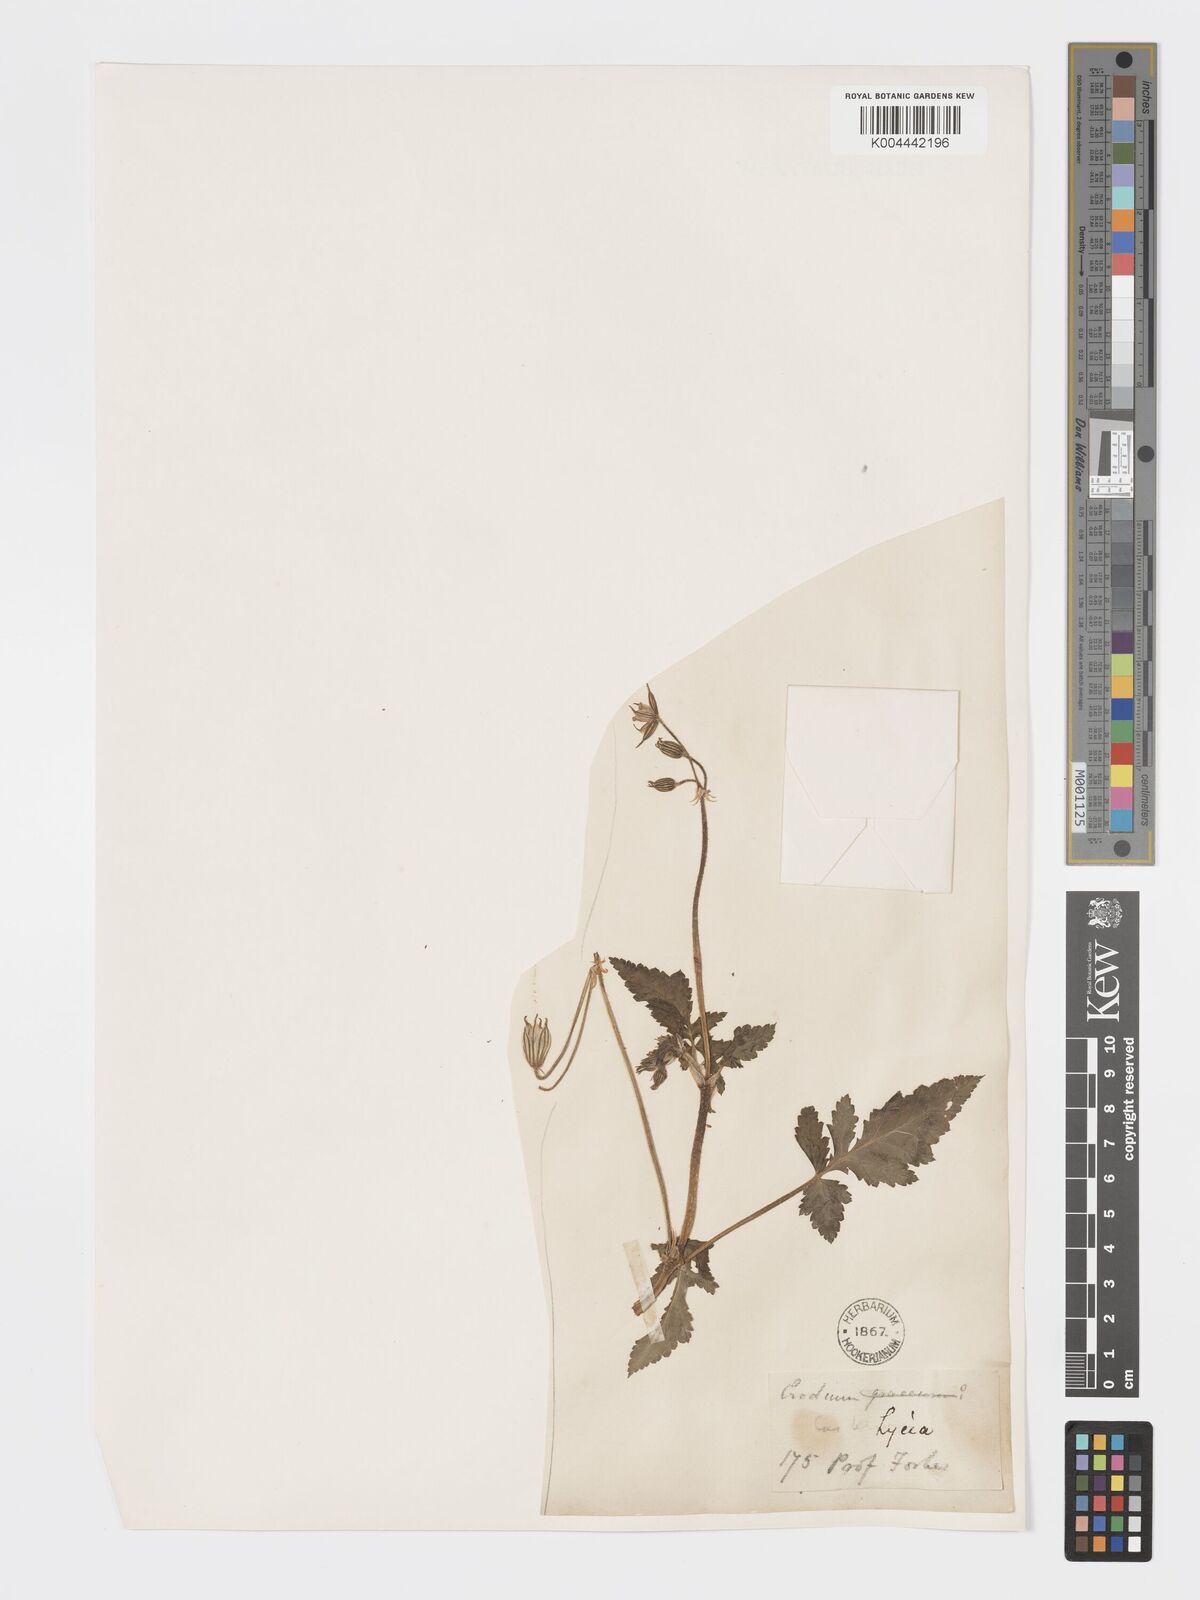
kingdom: Plantae
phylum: Tracheophyta
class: Magnoliopsida
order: Geraniales
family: Geraniaceae
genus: Erodium
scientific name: Erodium gruinum
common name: Iranian stork's bill
